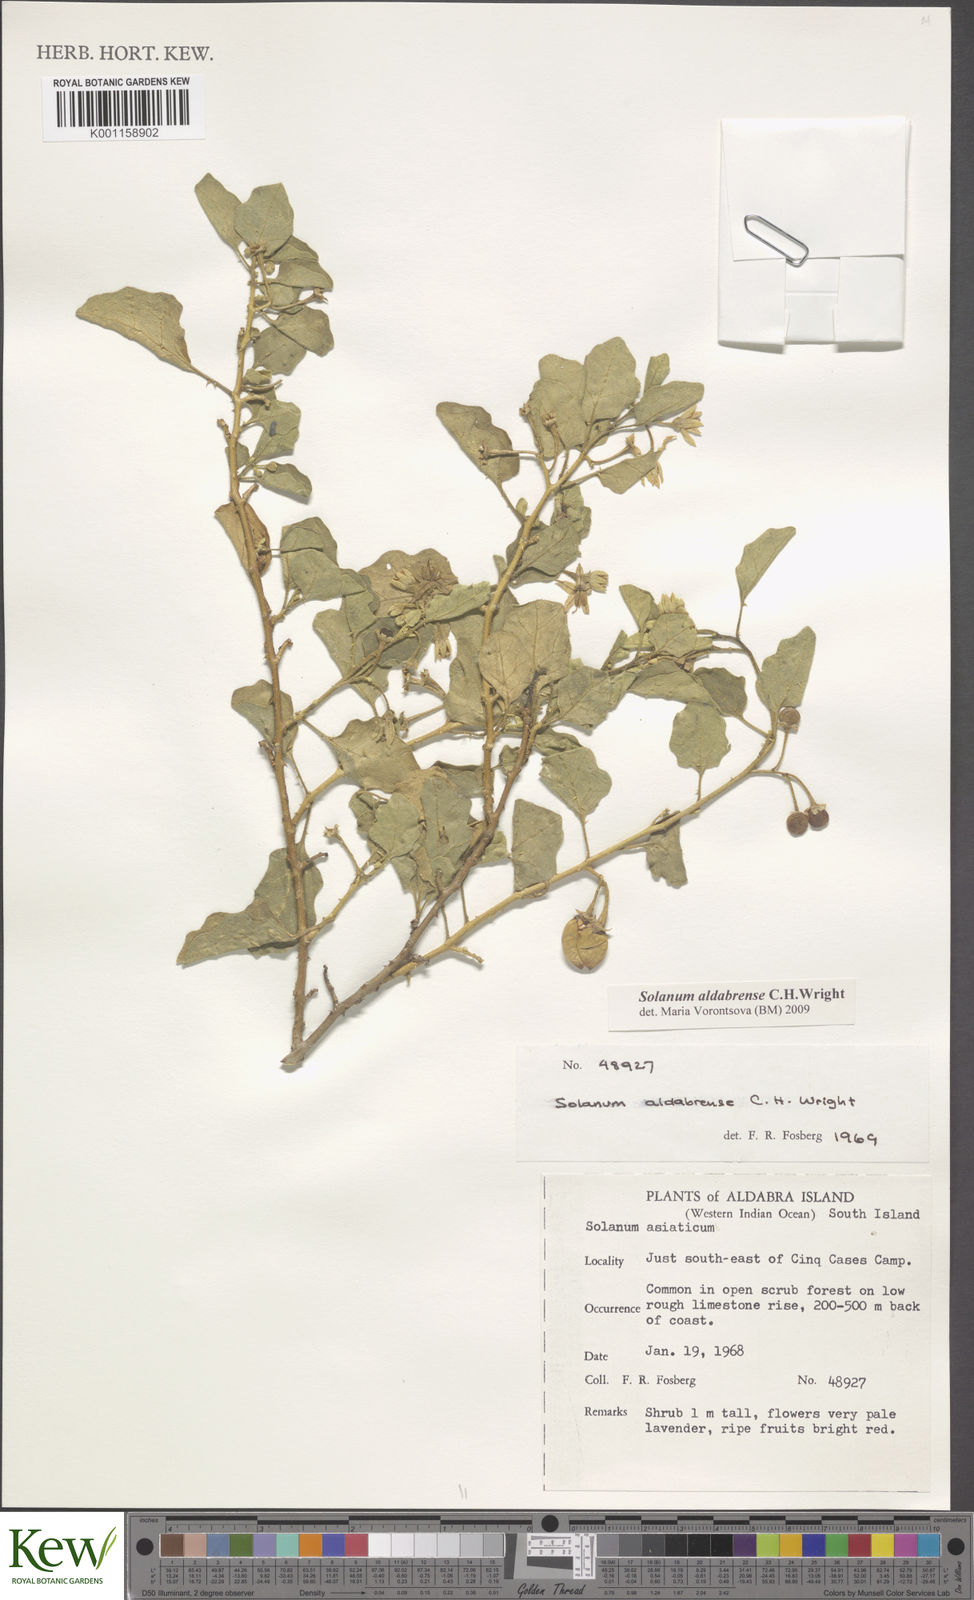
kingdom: Plantae
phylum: Tracheophyta
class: Magnoliopsida
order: Solanales
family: Solanaceae
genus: Solanum
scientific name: Solanum aldabrense
